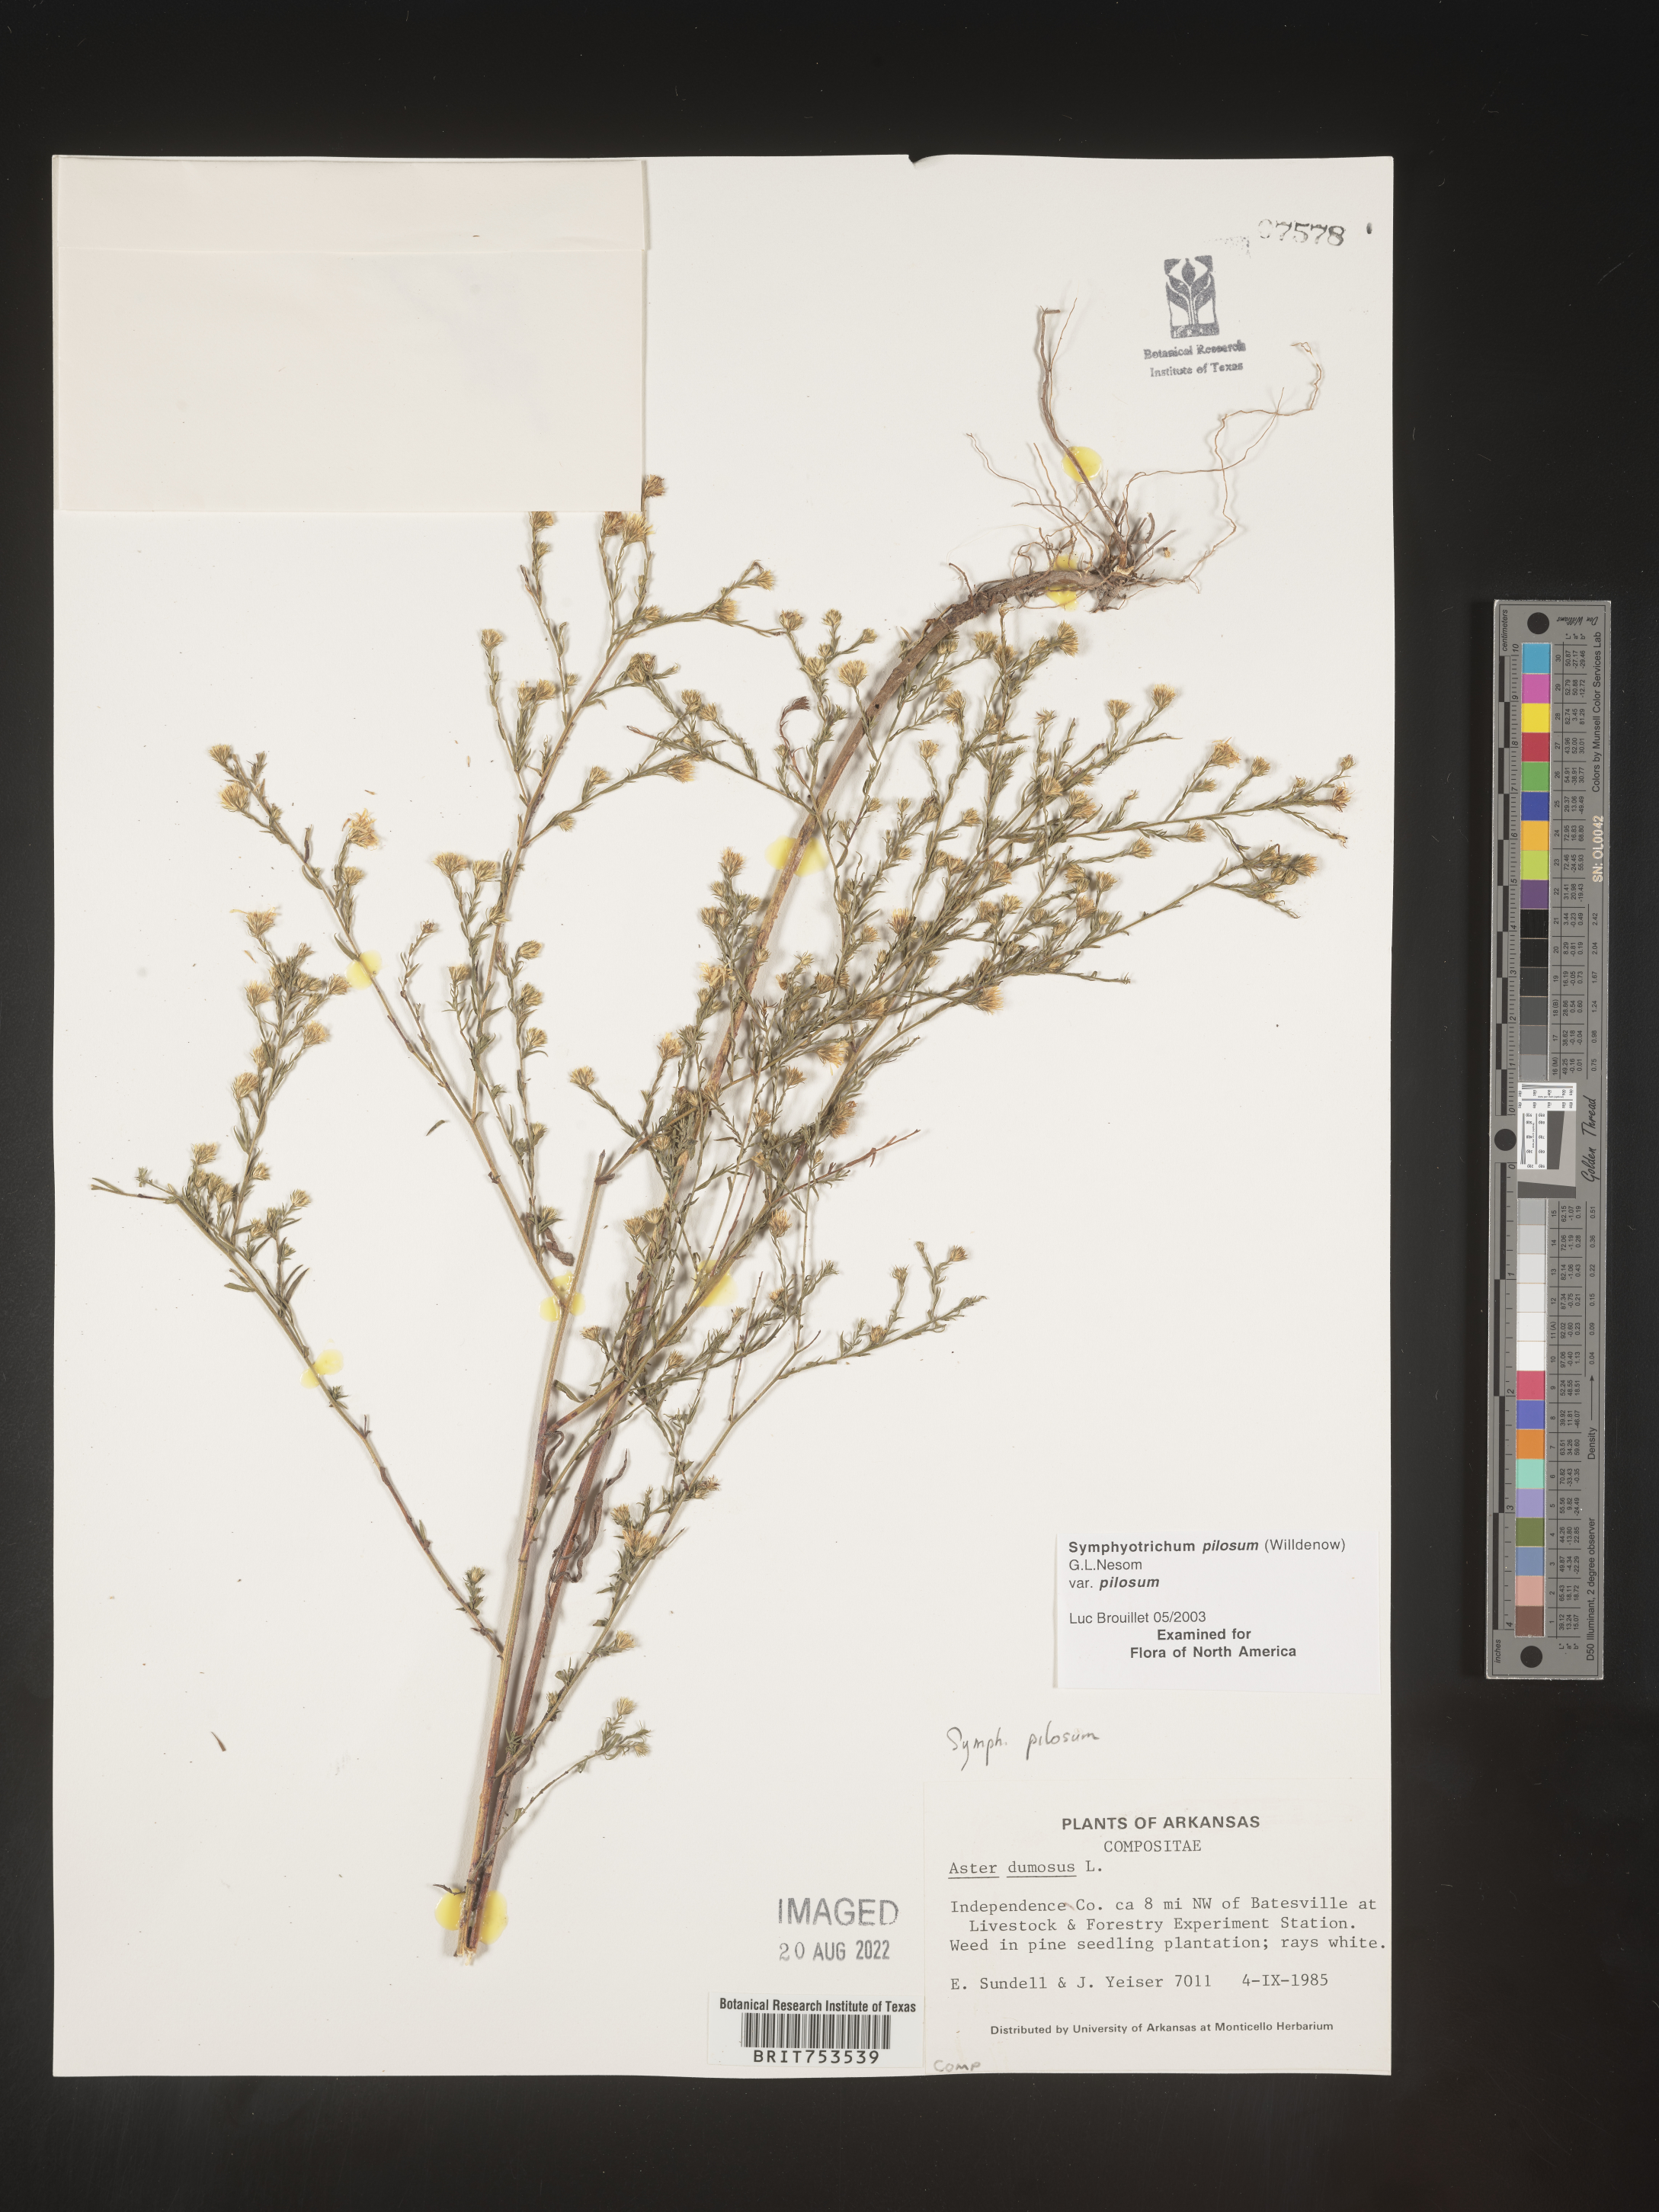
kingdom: Plantae
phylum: Tracheophyta
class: Magnoliopsida
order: Asterales
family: Asteraceae
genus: Symphyotrichum
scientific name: Symphyotrichum pilosum
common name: Awl aster
